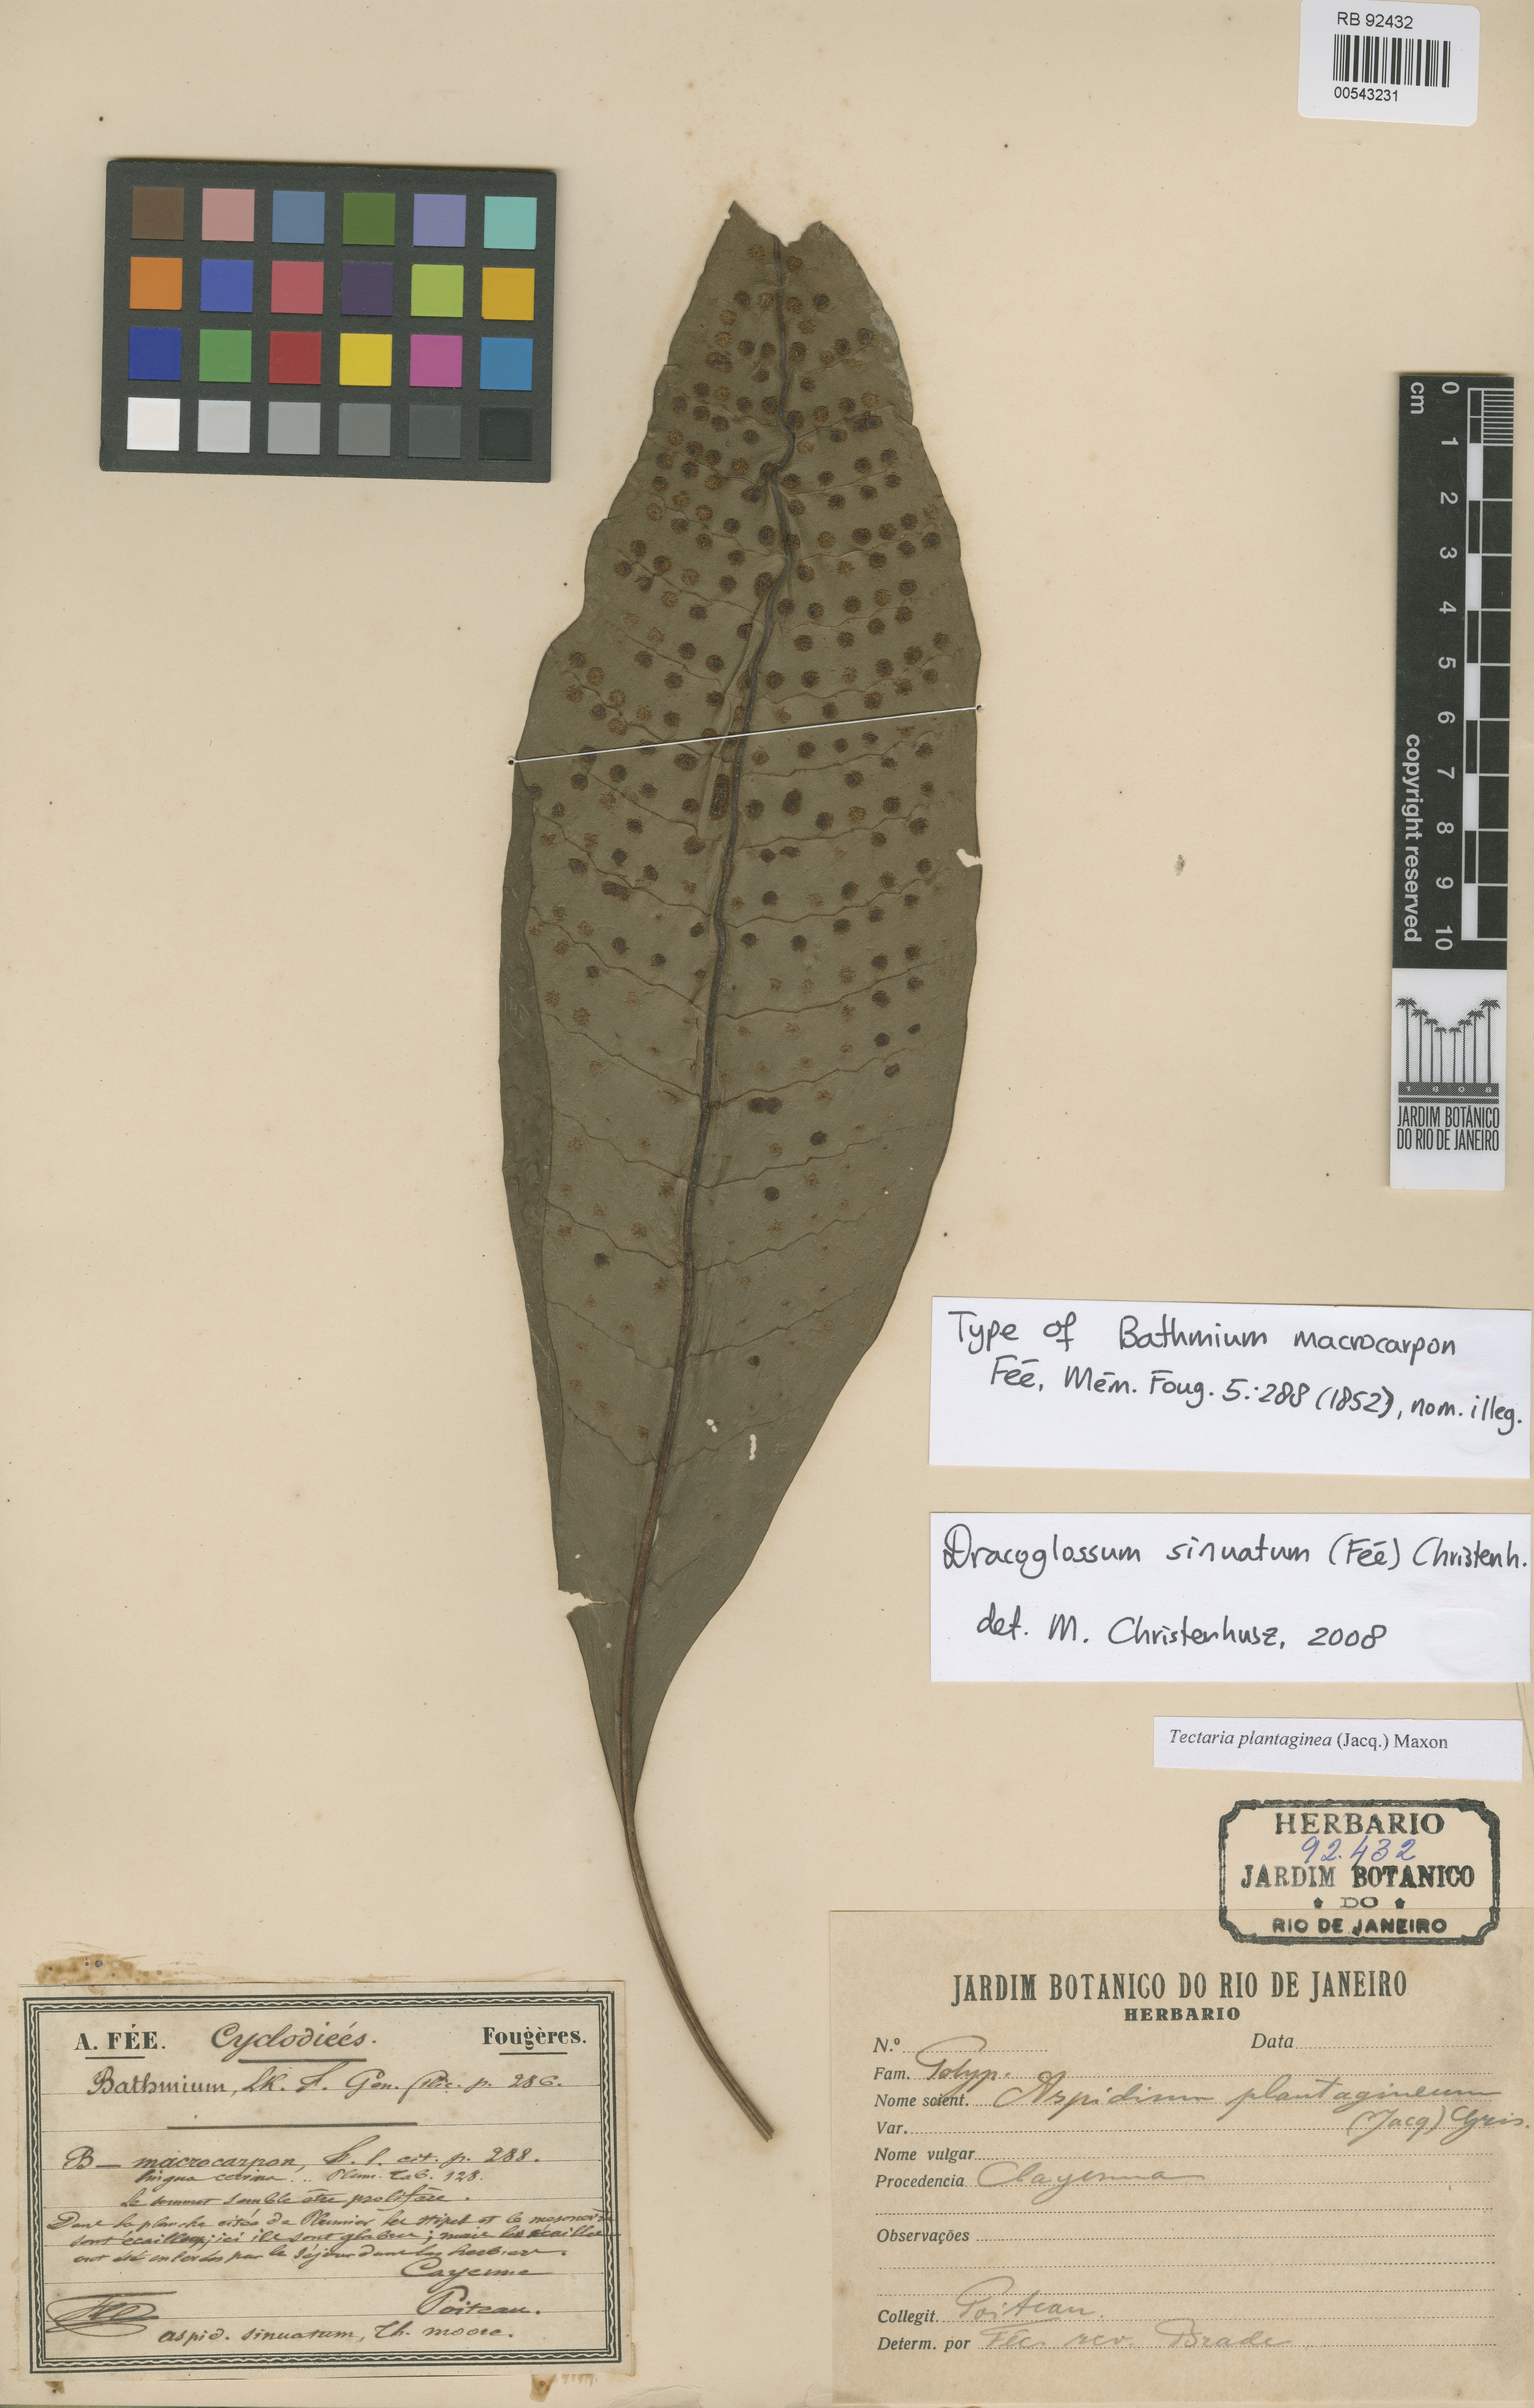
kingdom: Plantae
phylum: Tracheophyta
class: Polypodiopsida
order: Polypodiales
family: Lomariopsidaceae
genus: Dracoglossum
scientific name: Dracoglossum sinuatum
